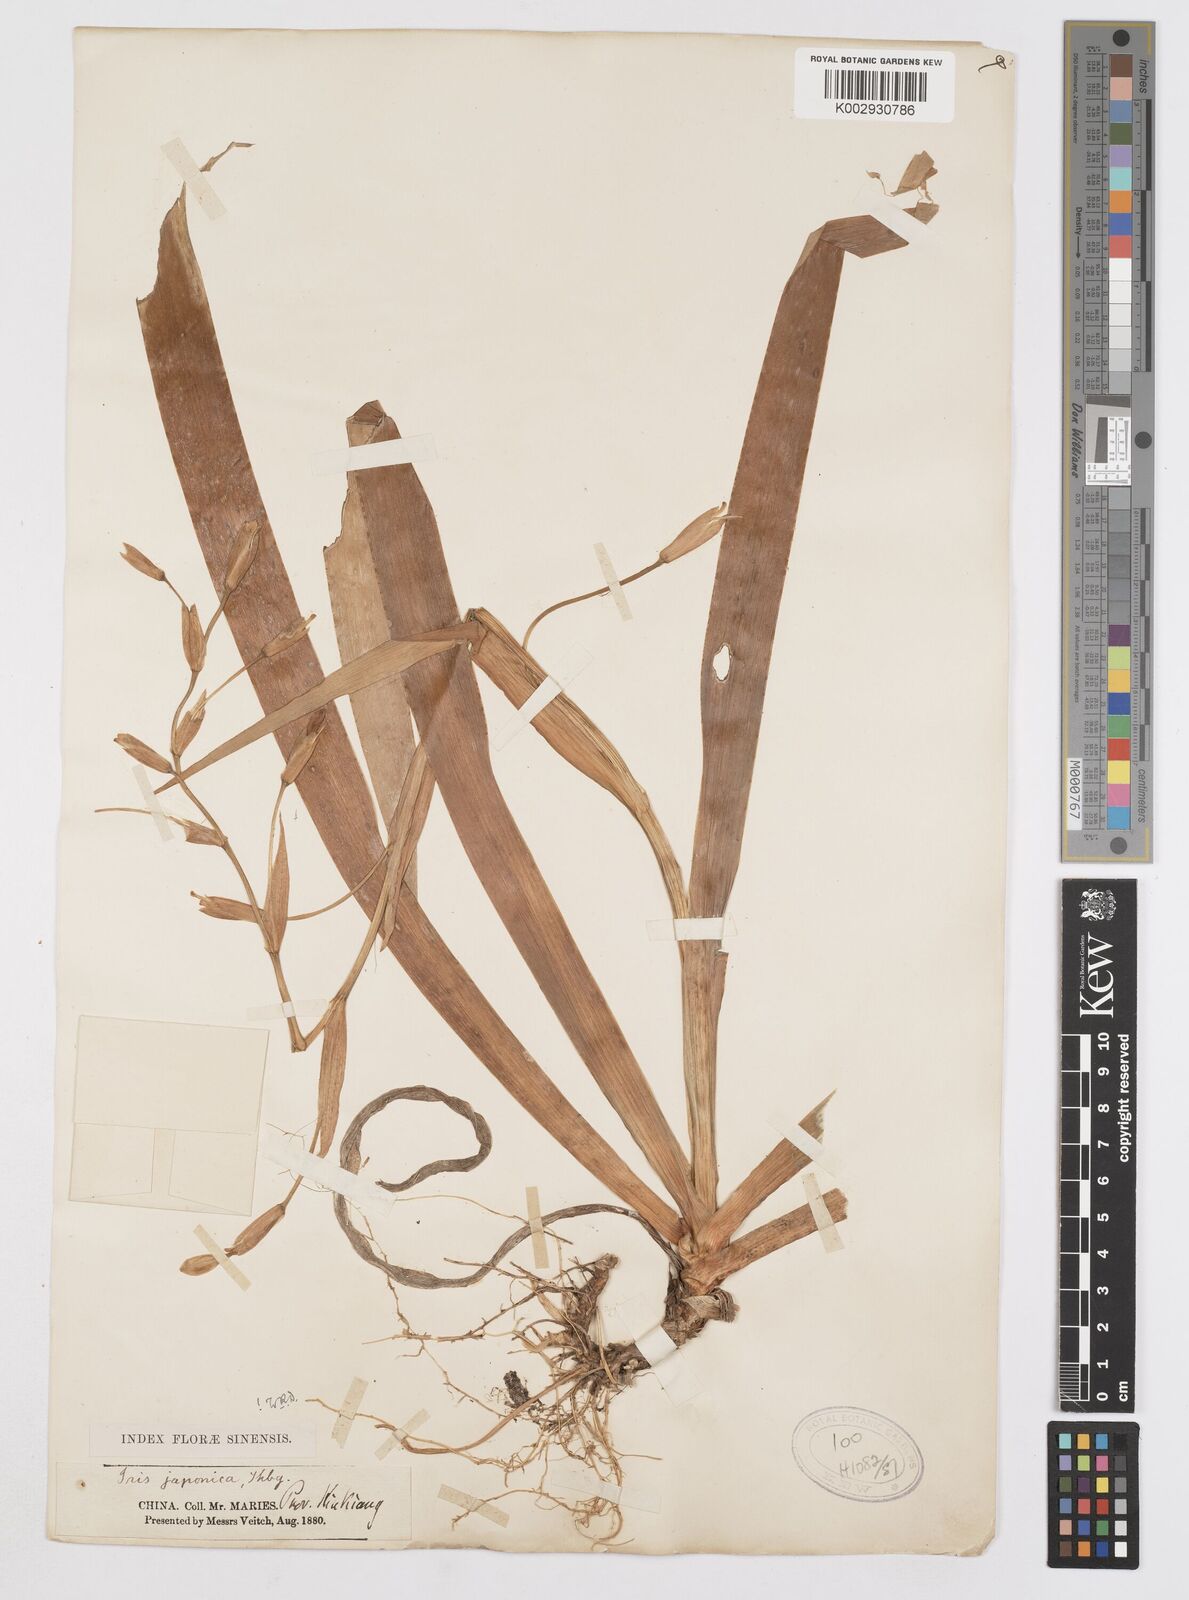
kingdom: Plantae
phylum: Tracheophyta
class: Liliopsida
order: Asparagales
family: Iridaceae
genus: Iris
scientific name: Iris japonica
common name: Butterfly-flower
